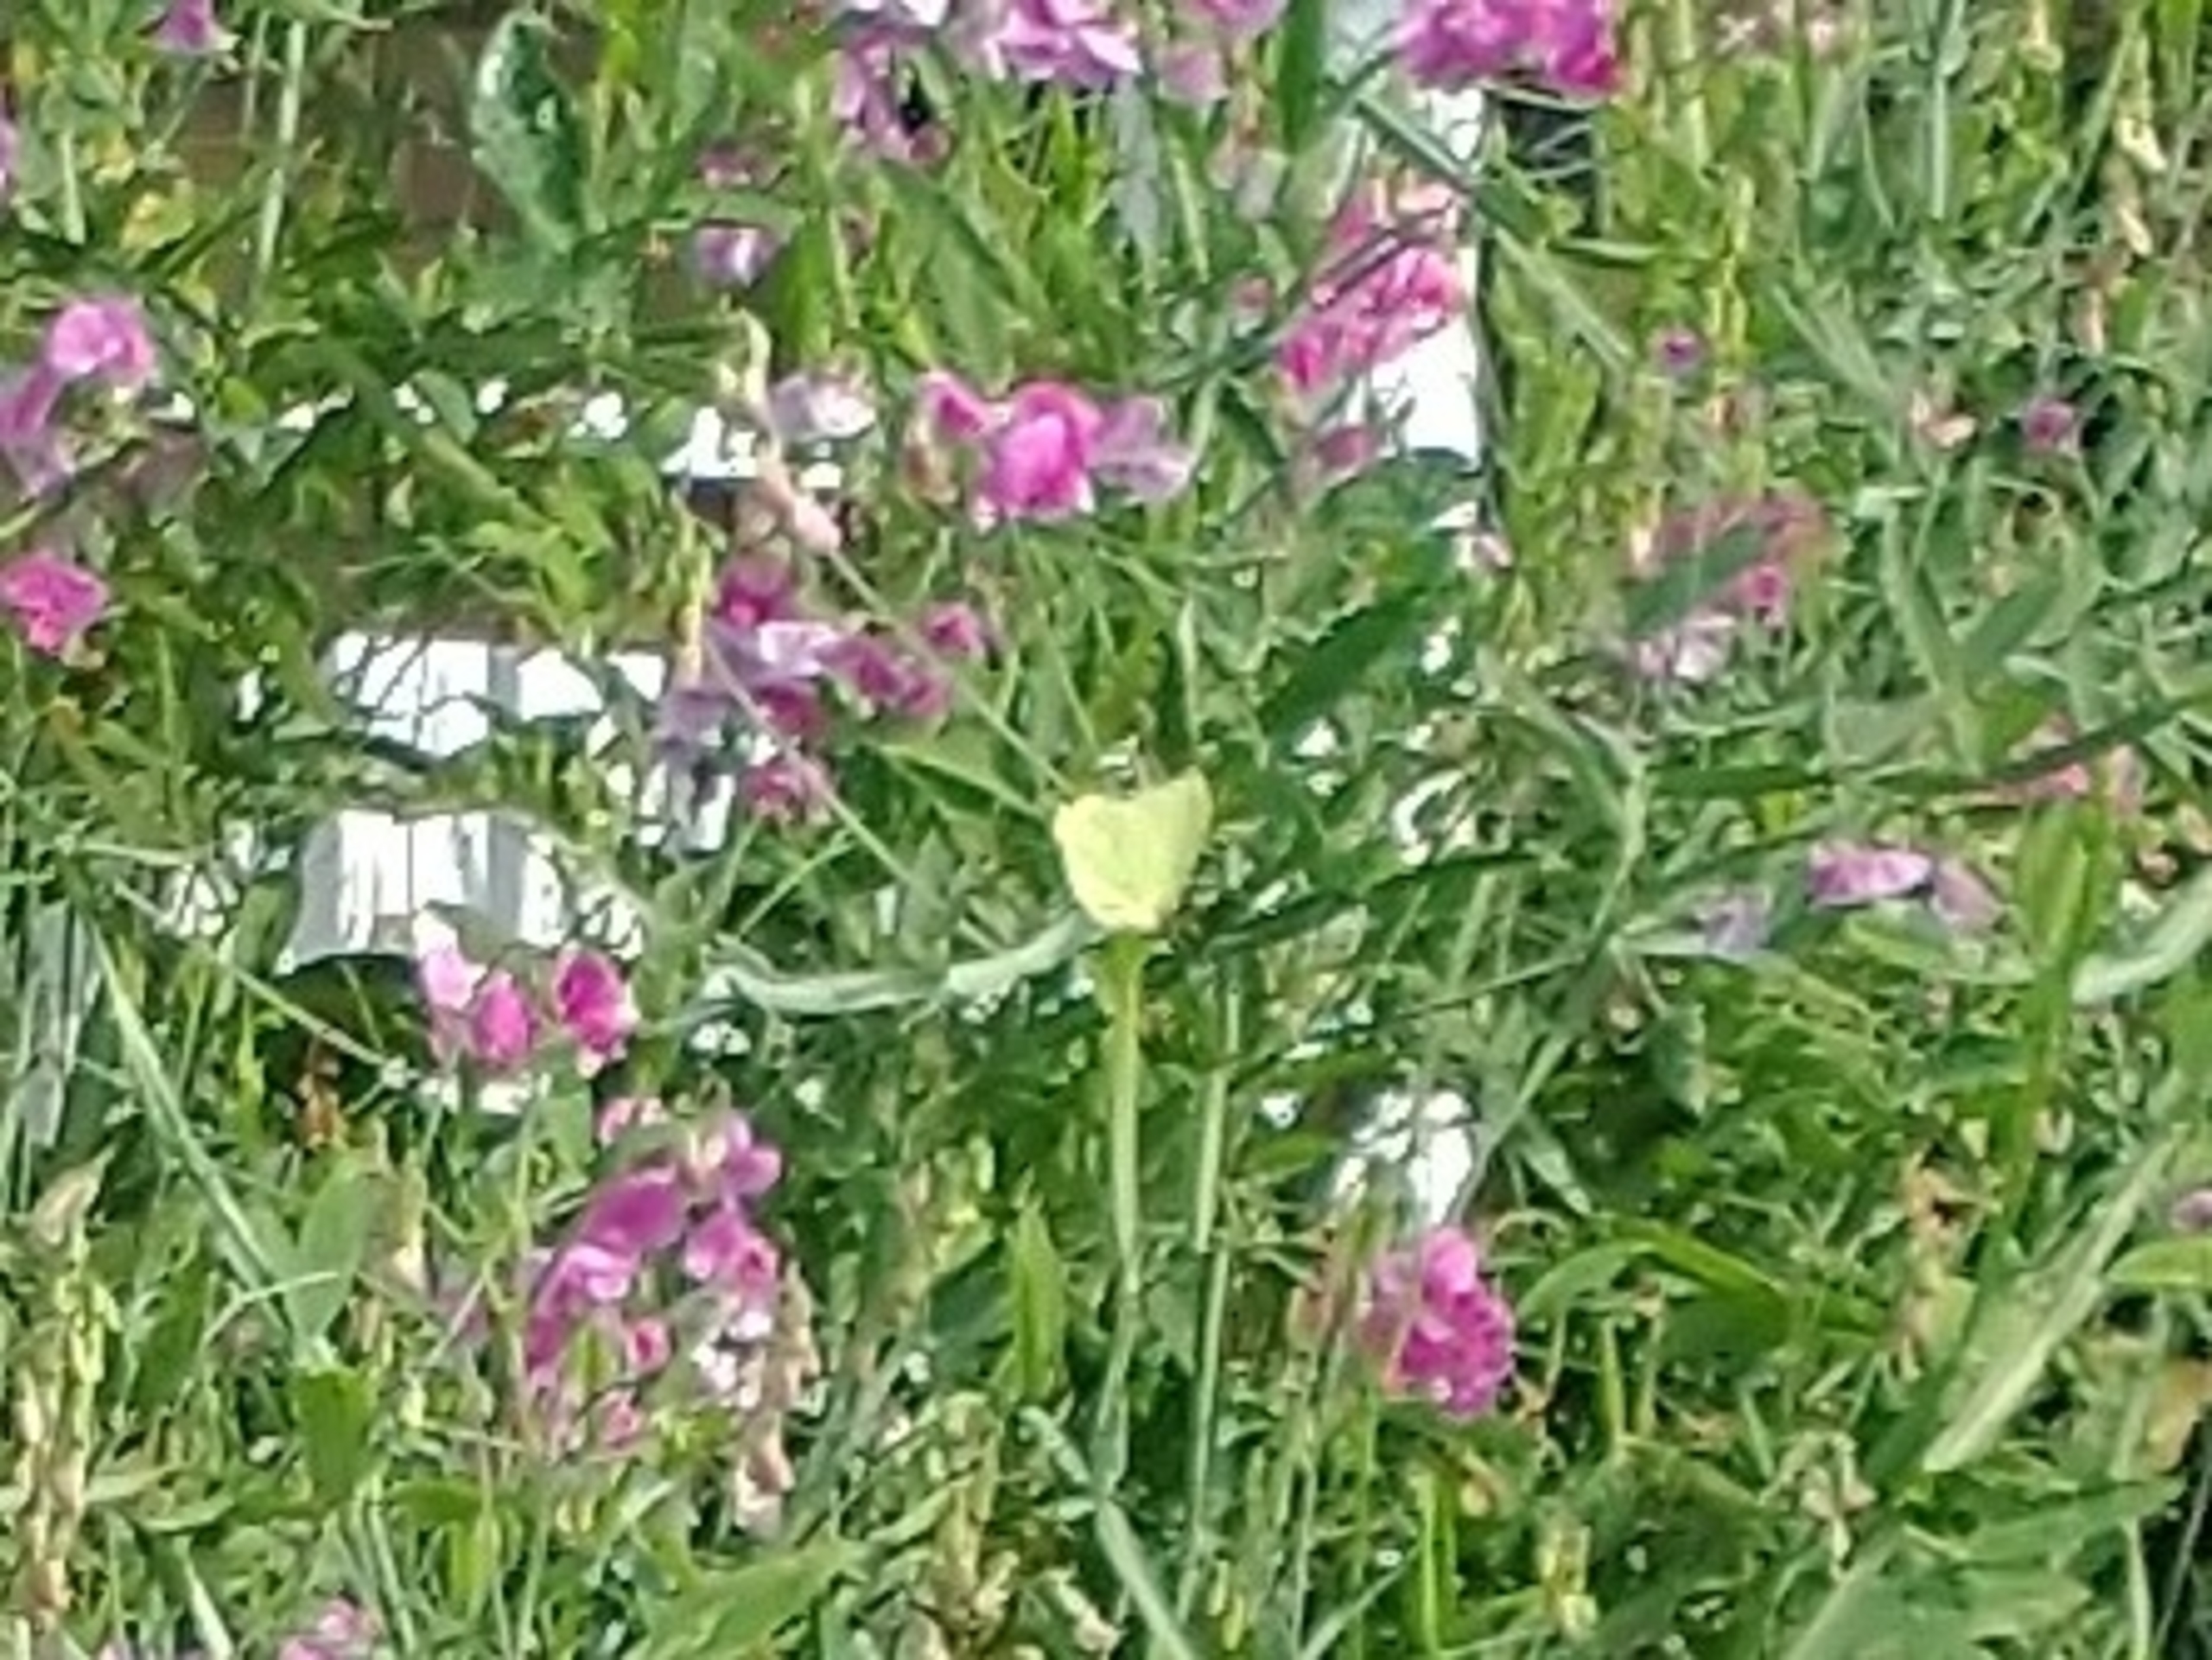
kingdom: Animalia
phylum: Arthropoda
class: Insecta
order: Lepidoptera
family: Pieridae
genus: Gonepteryx
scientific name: Gonepteryx rhamni
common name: Citronsommerfugl
